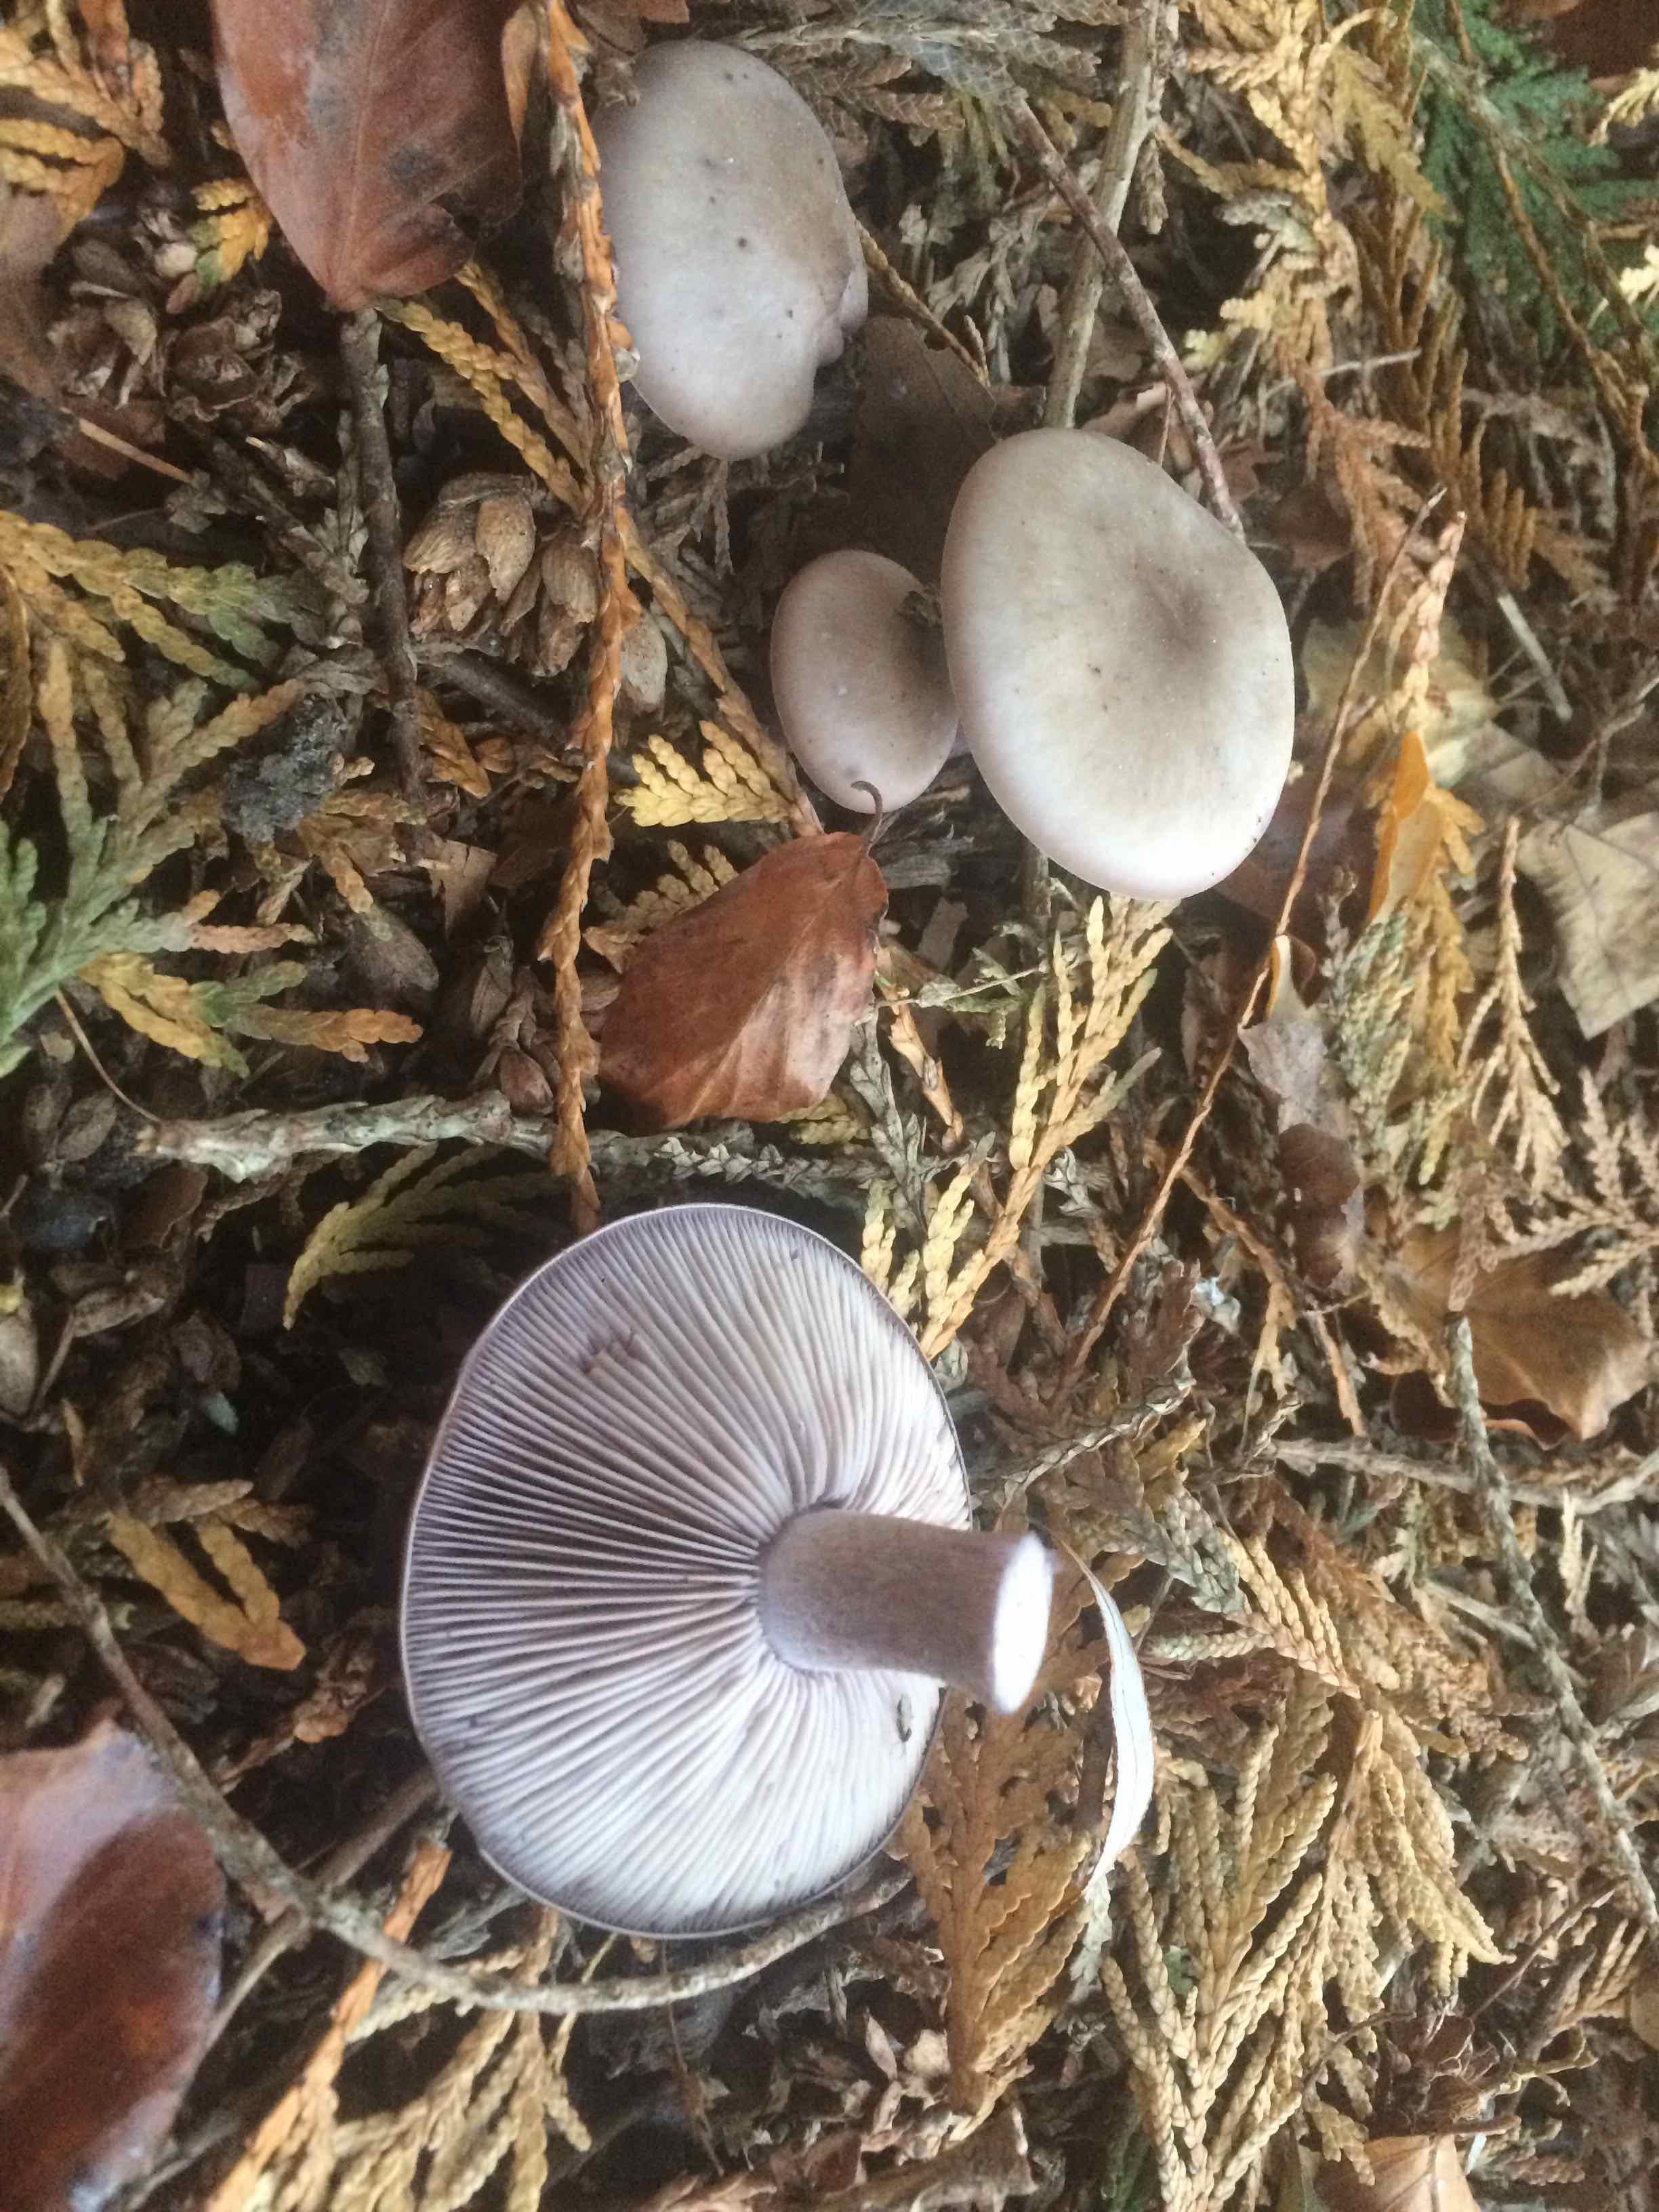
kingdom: Fungi
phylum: Basidiomycota
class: Agaricomycetes
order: Agaricales
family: Tricholomataceae
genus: Lepista
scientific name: Lepista personata
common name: bleg hekseringshat
